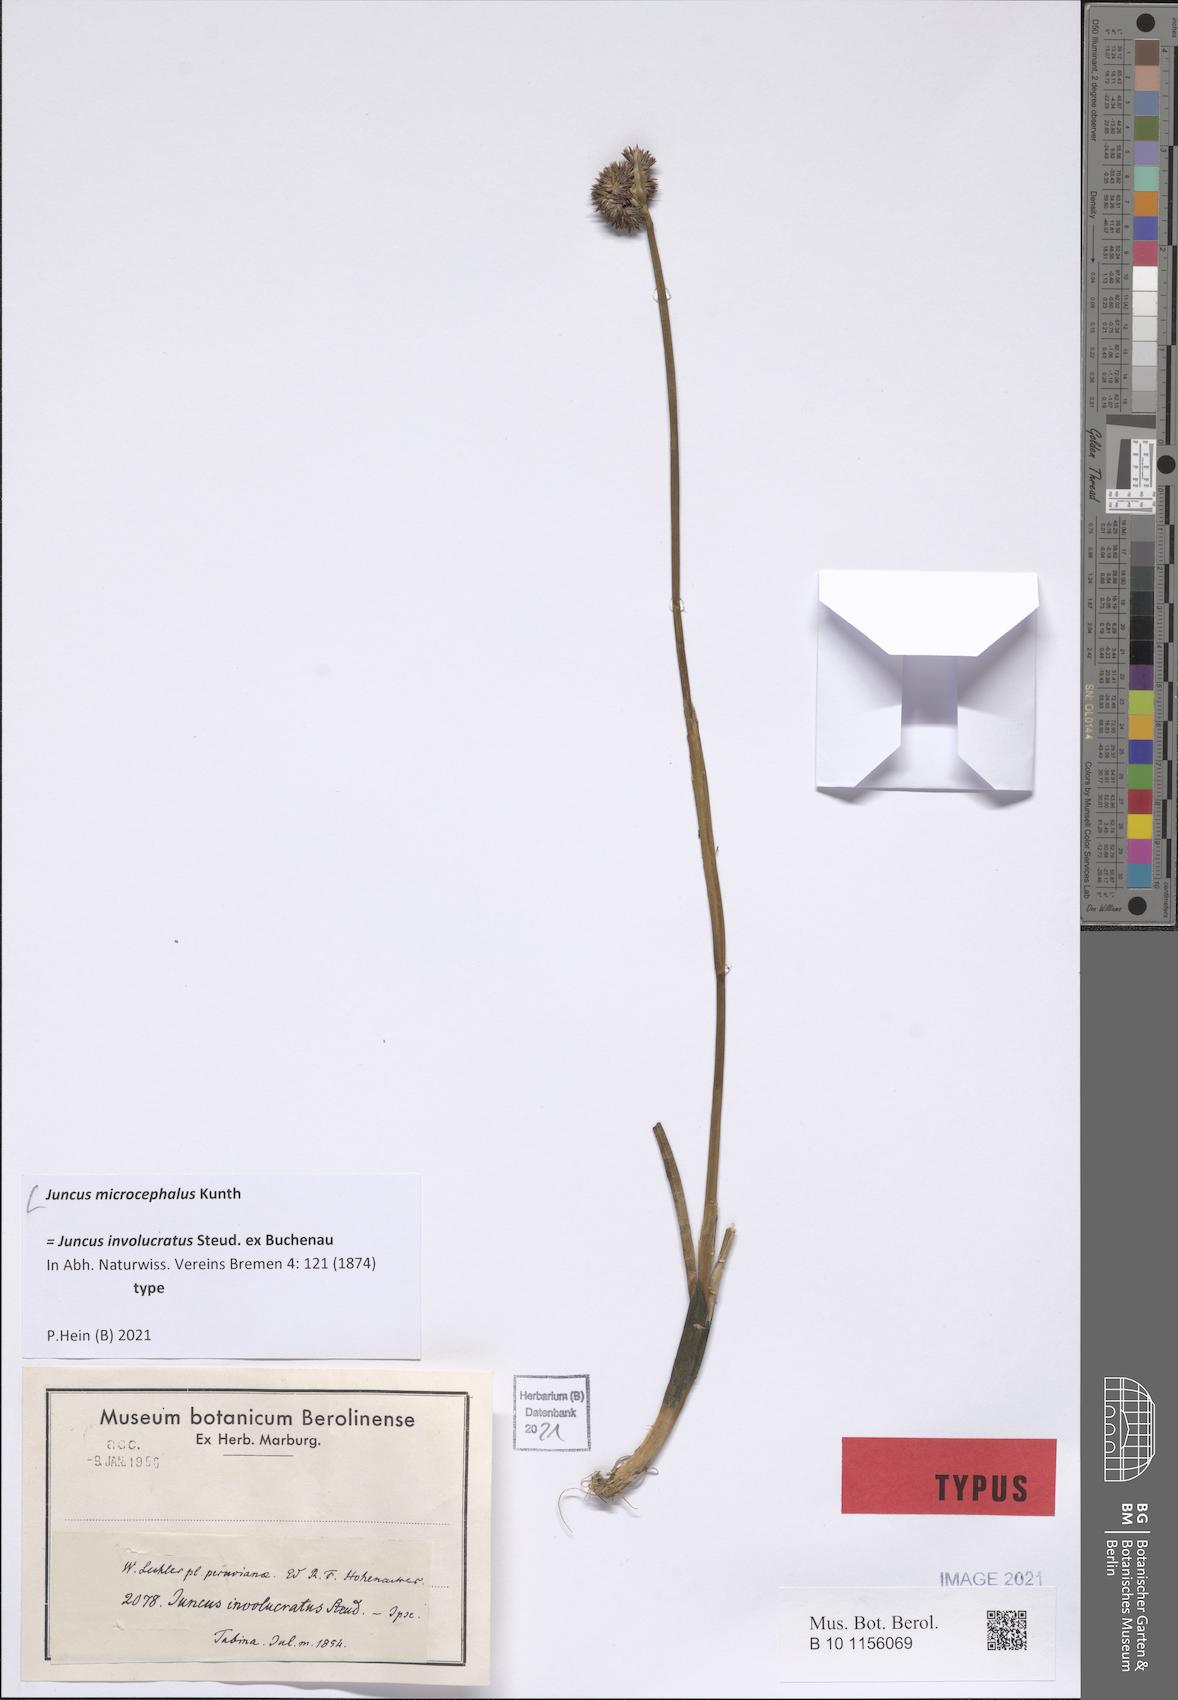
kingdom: Plantae
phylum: Tracheophyta
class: Liliopsida
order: Poales
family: Juncaceae
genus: Juncus
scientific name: Juncus microcephalus
